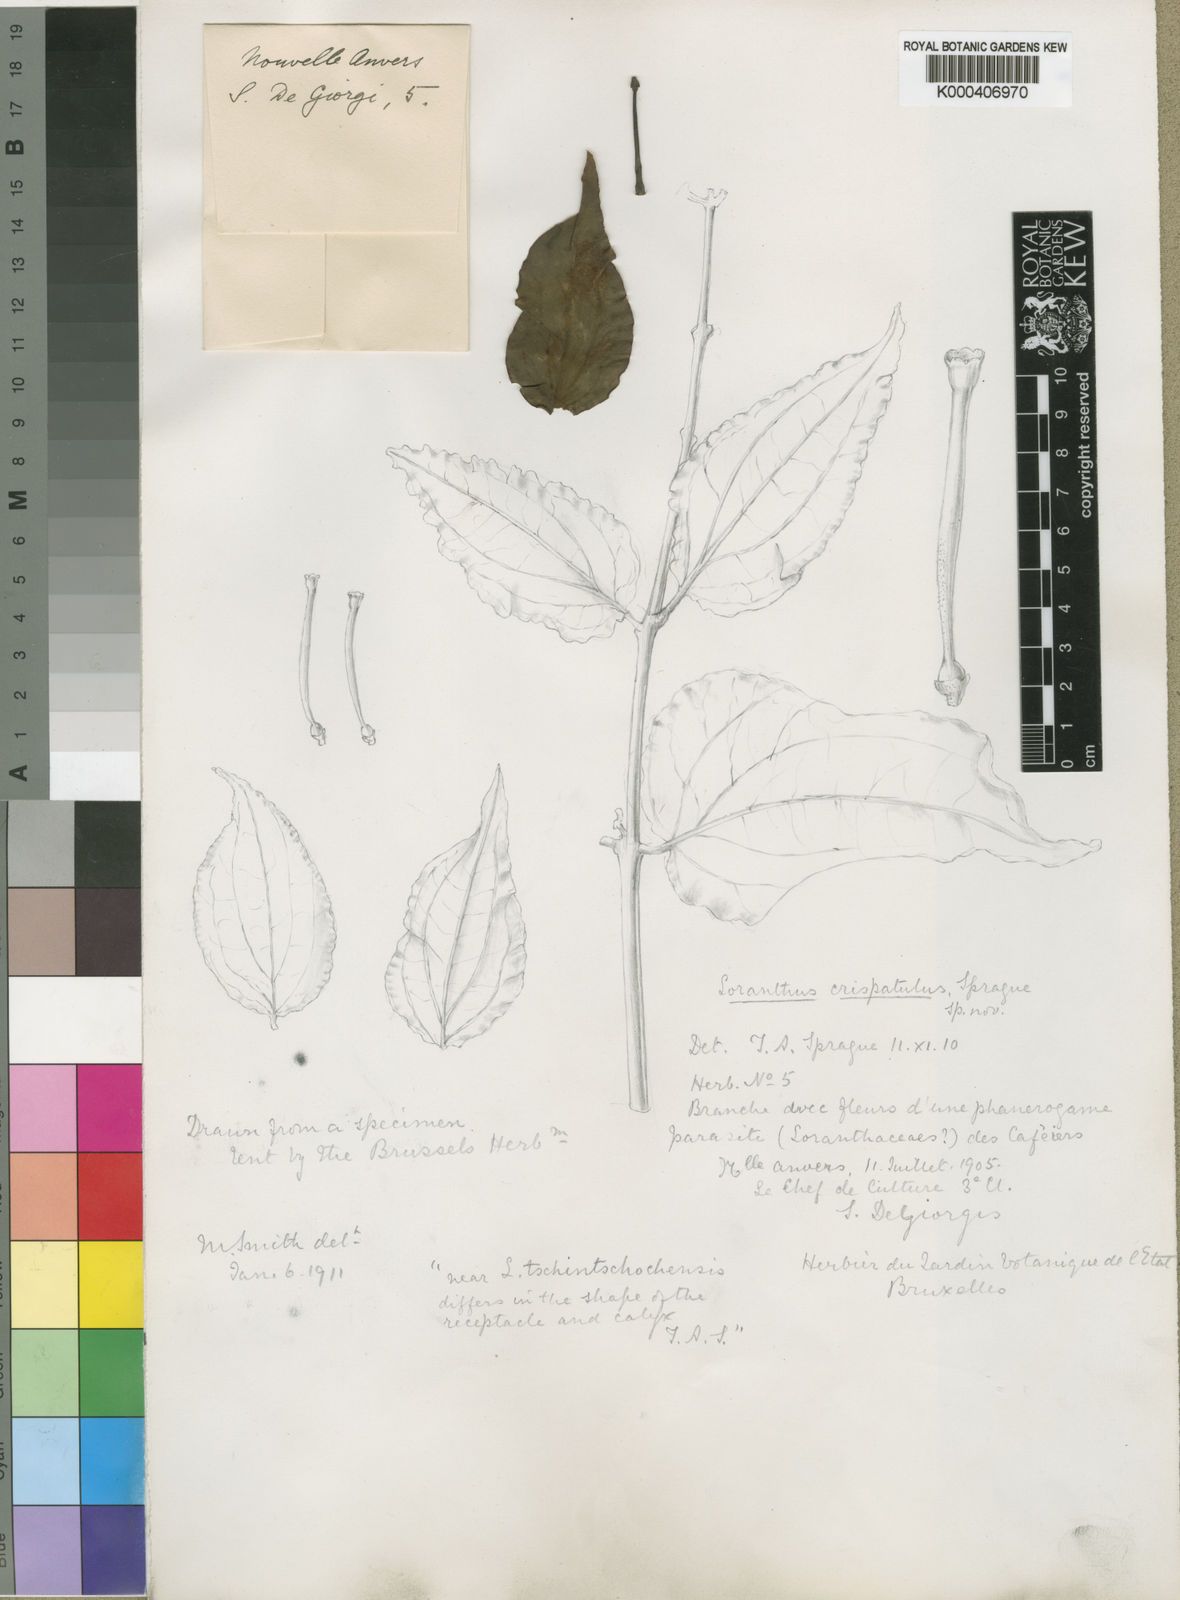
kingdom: Plantae
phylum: Tracheophyta
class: Magnoliopsida
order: Santalales
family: Loranthaceae
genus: Tapinanthus
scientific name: Tapinanthus buchneri
